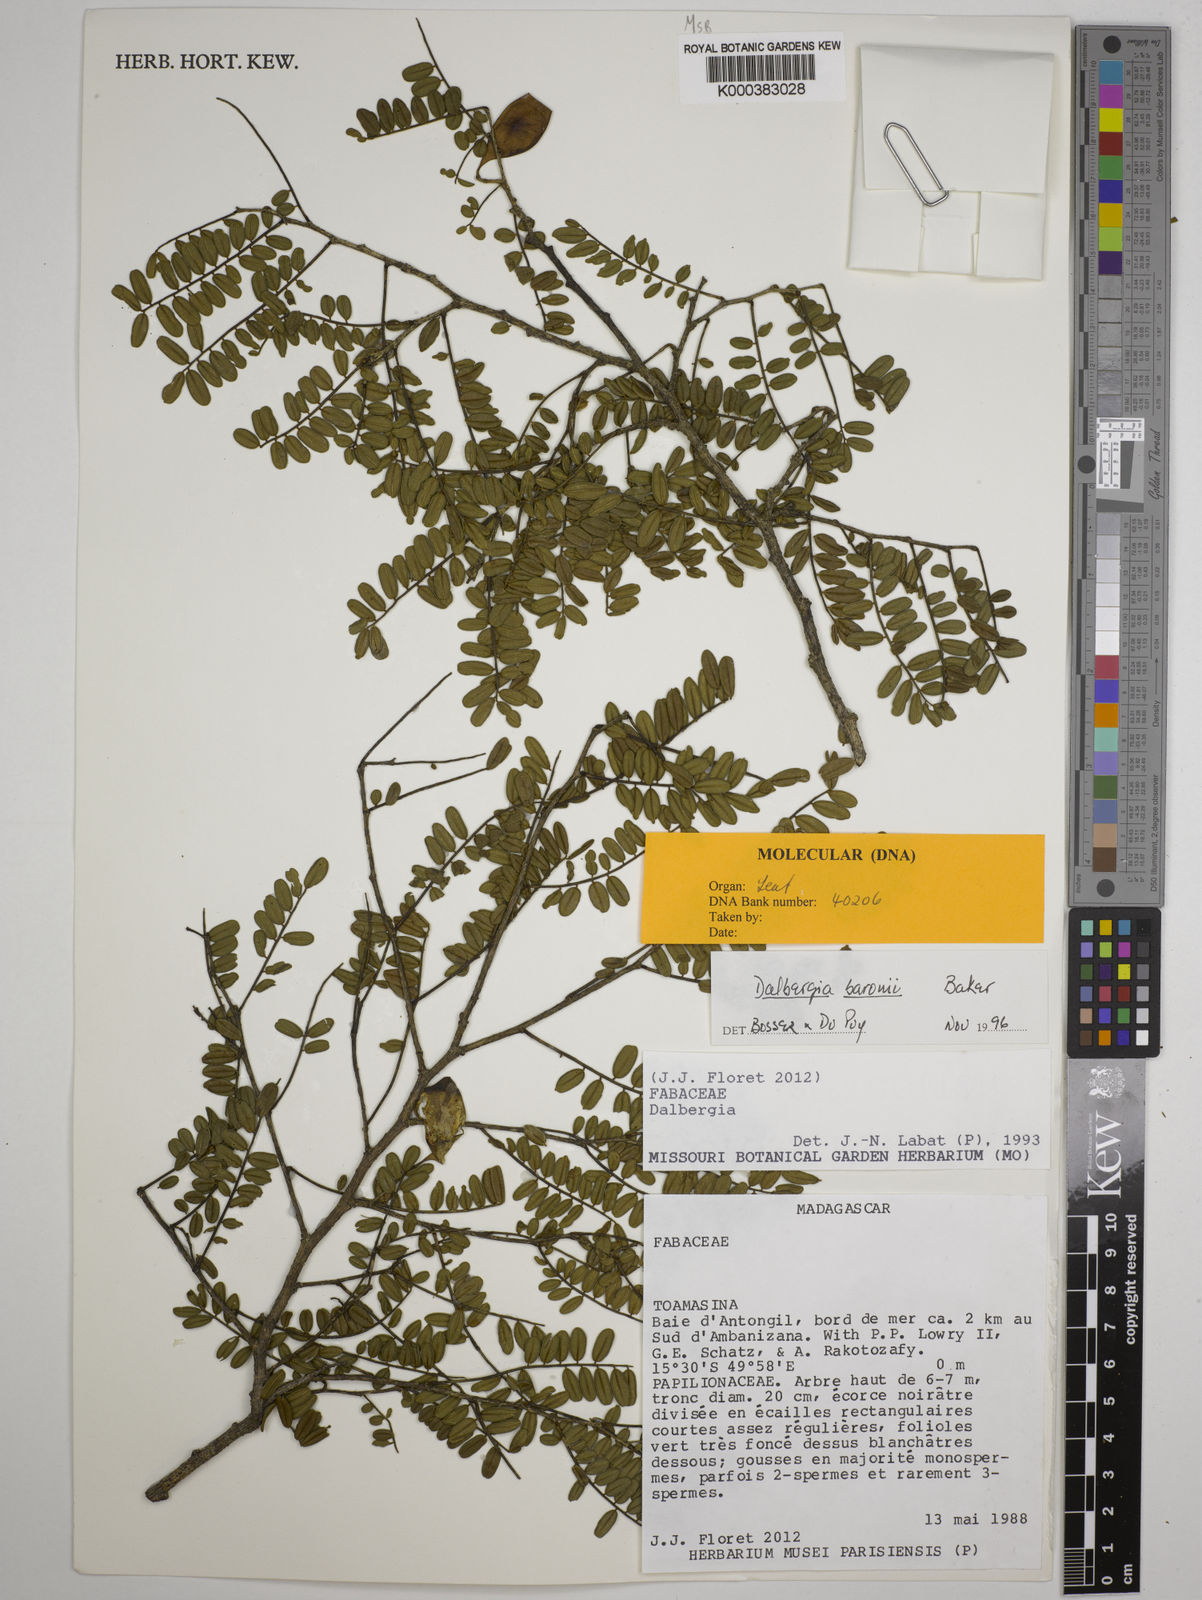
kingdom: Plantae
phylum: Tracheophyta
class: Magnoliopsida
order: Fabales
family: Fabaceae
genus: Dalbergia
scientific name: Dalbergia baronii
